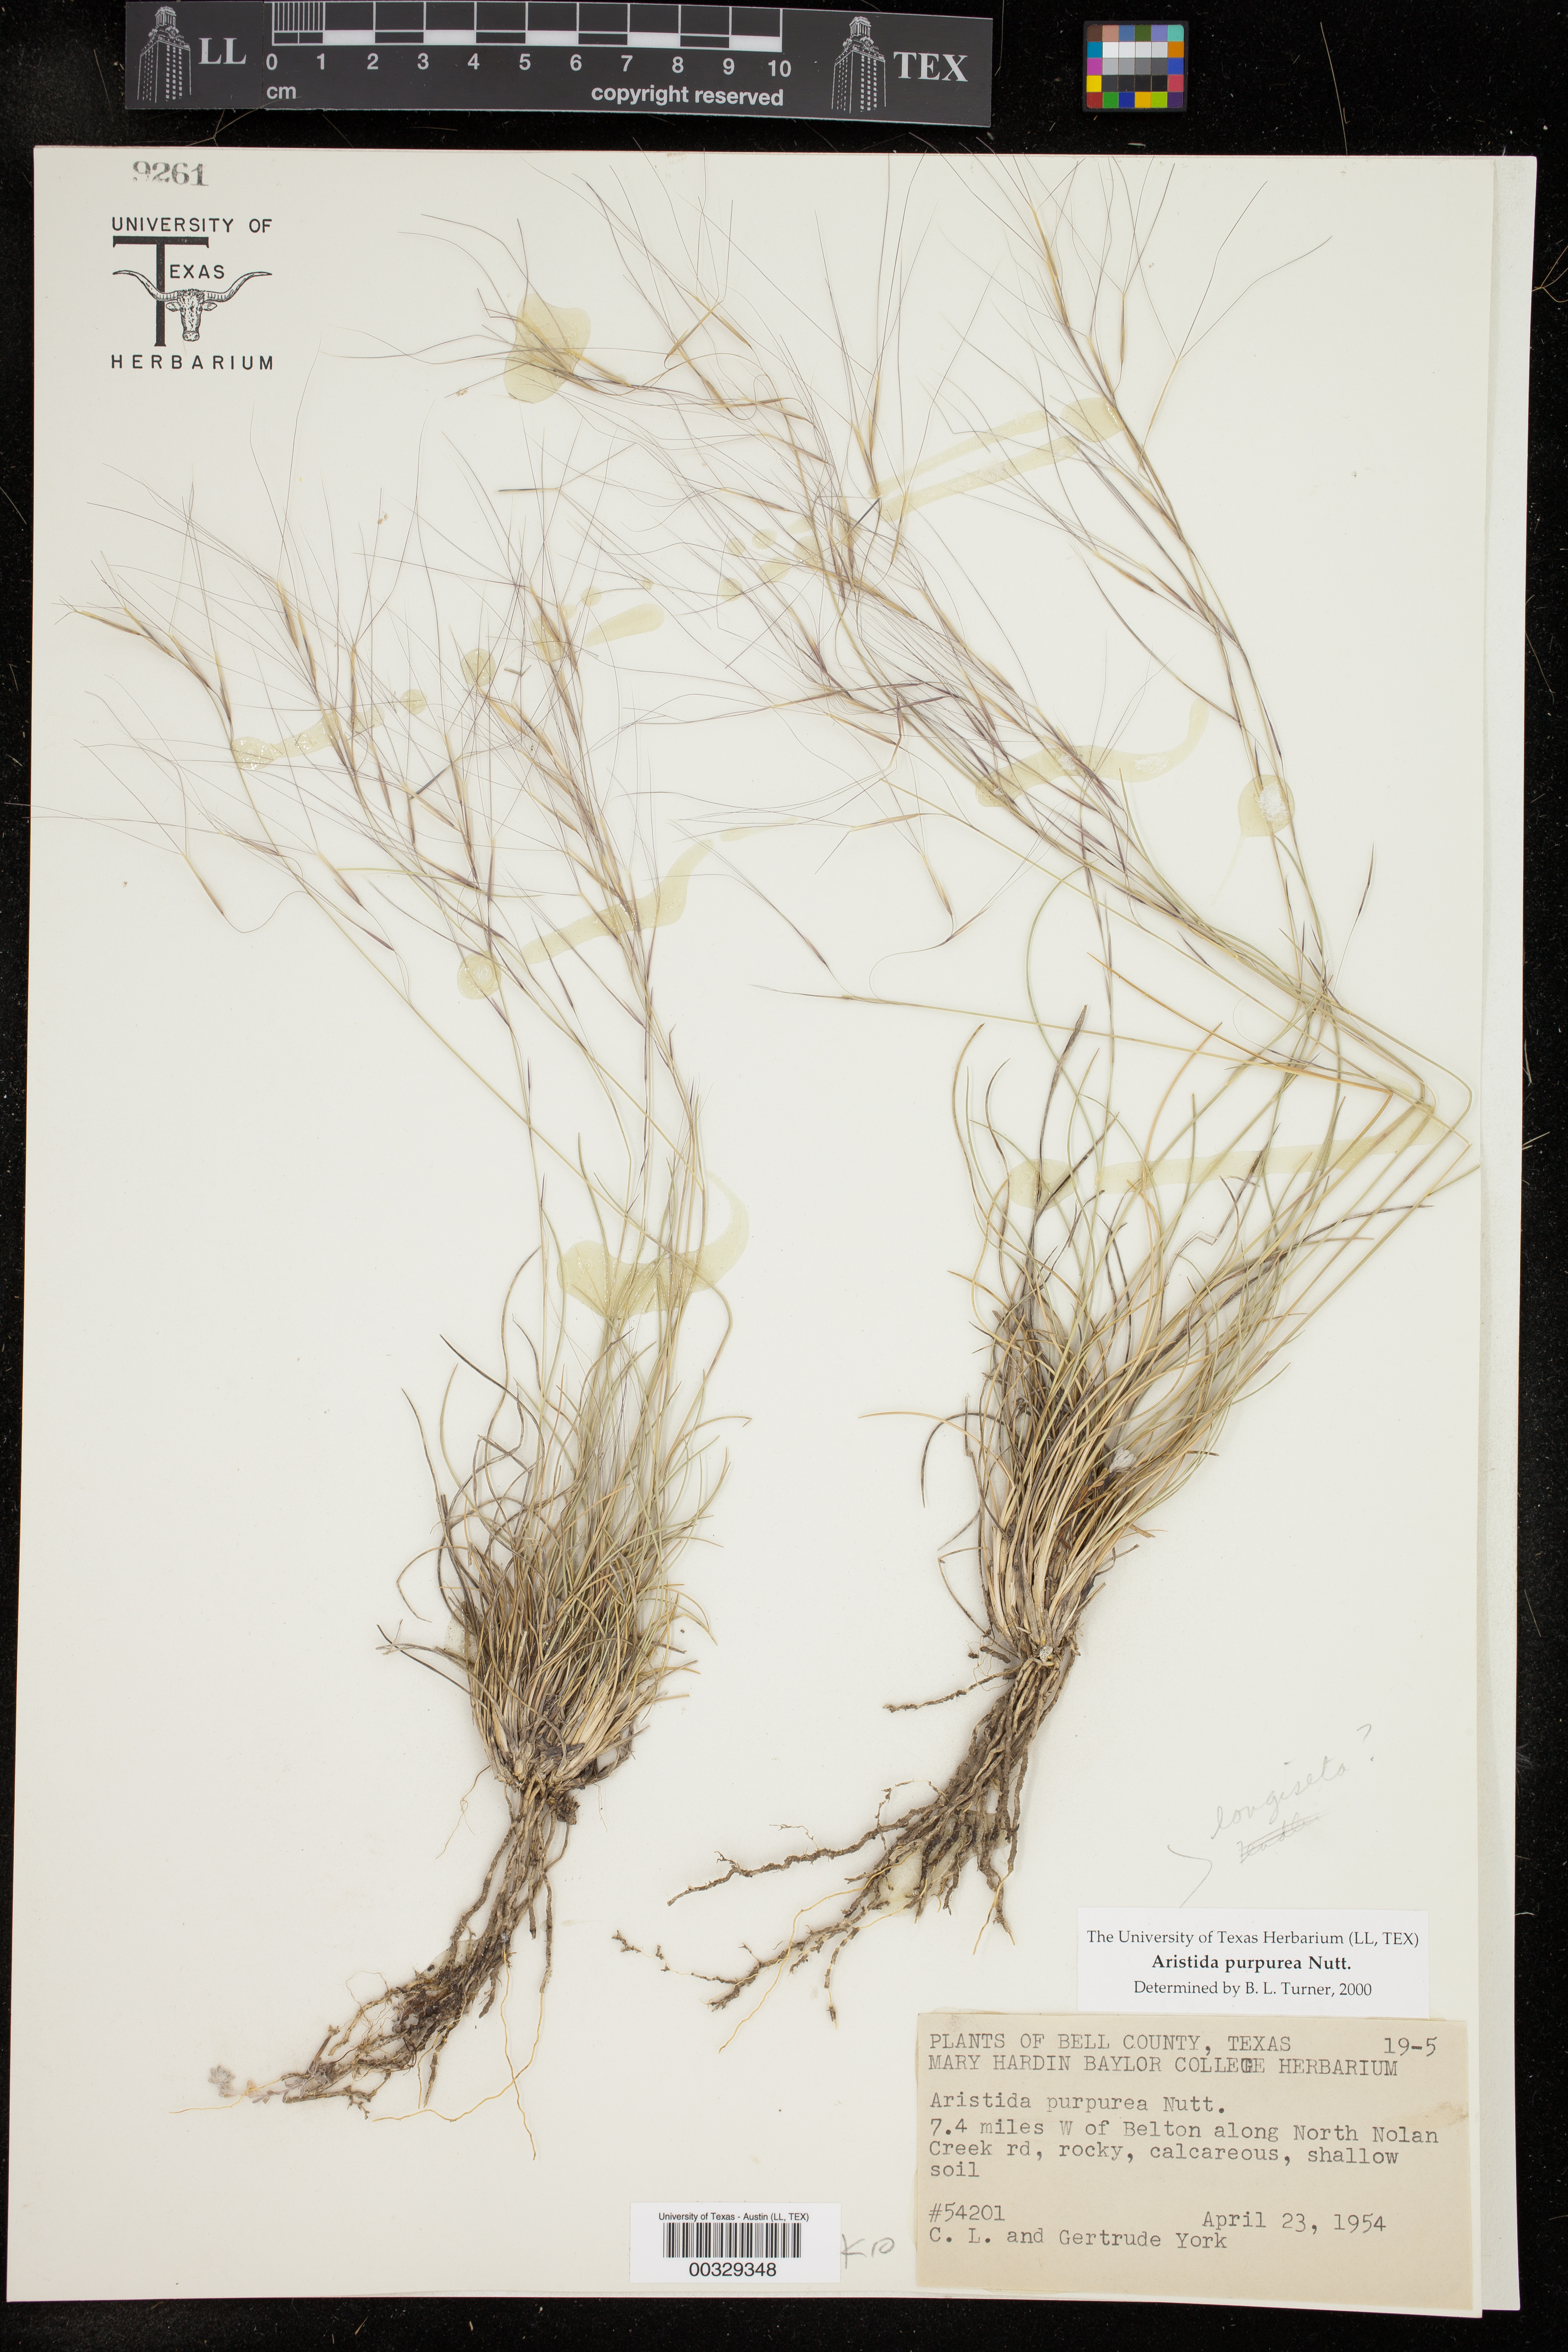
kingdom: Plantae
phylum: Tracheophyta
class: Liliopsida
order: Poales
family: Poaceae
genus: Aristida
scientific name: Aristida purpurea
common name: Purple threeawn
